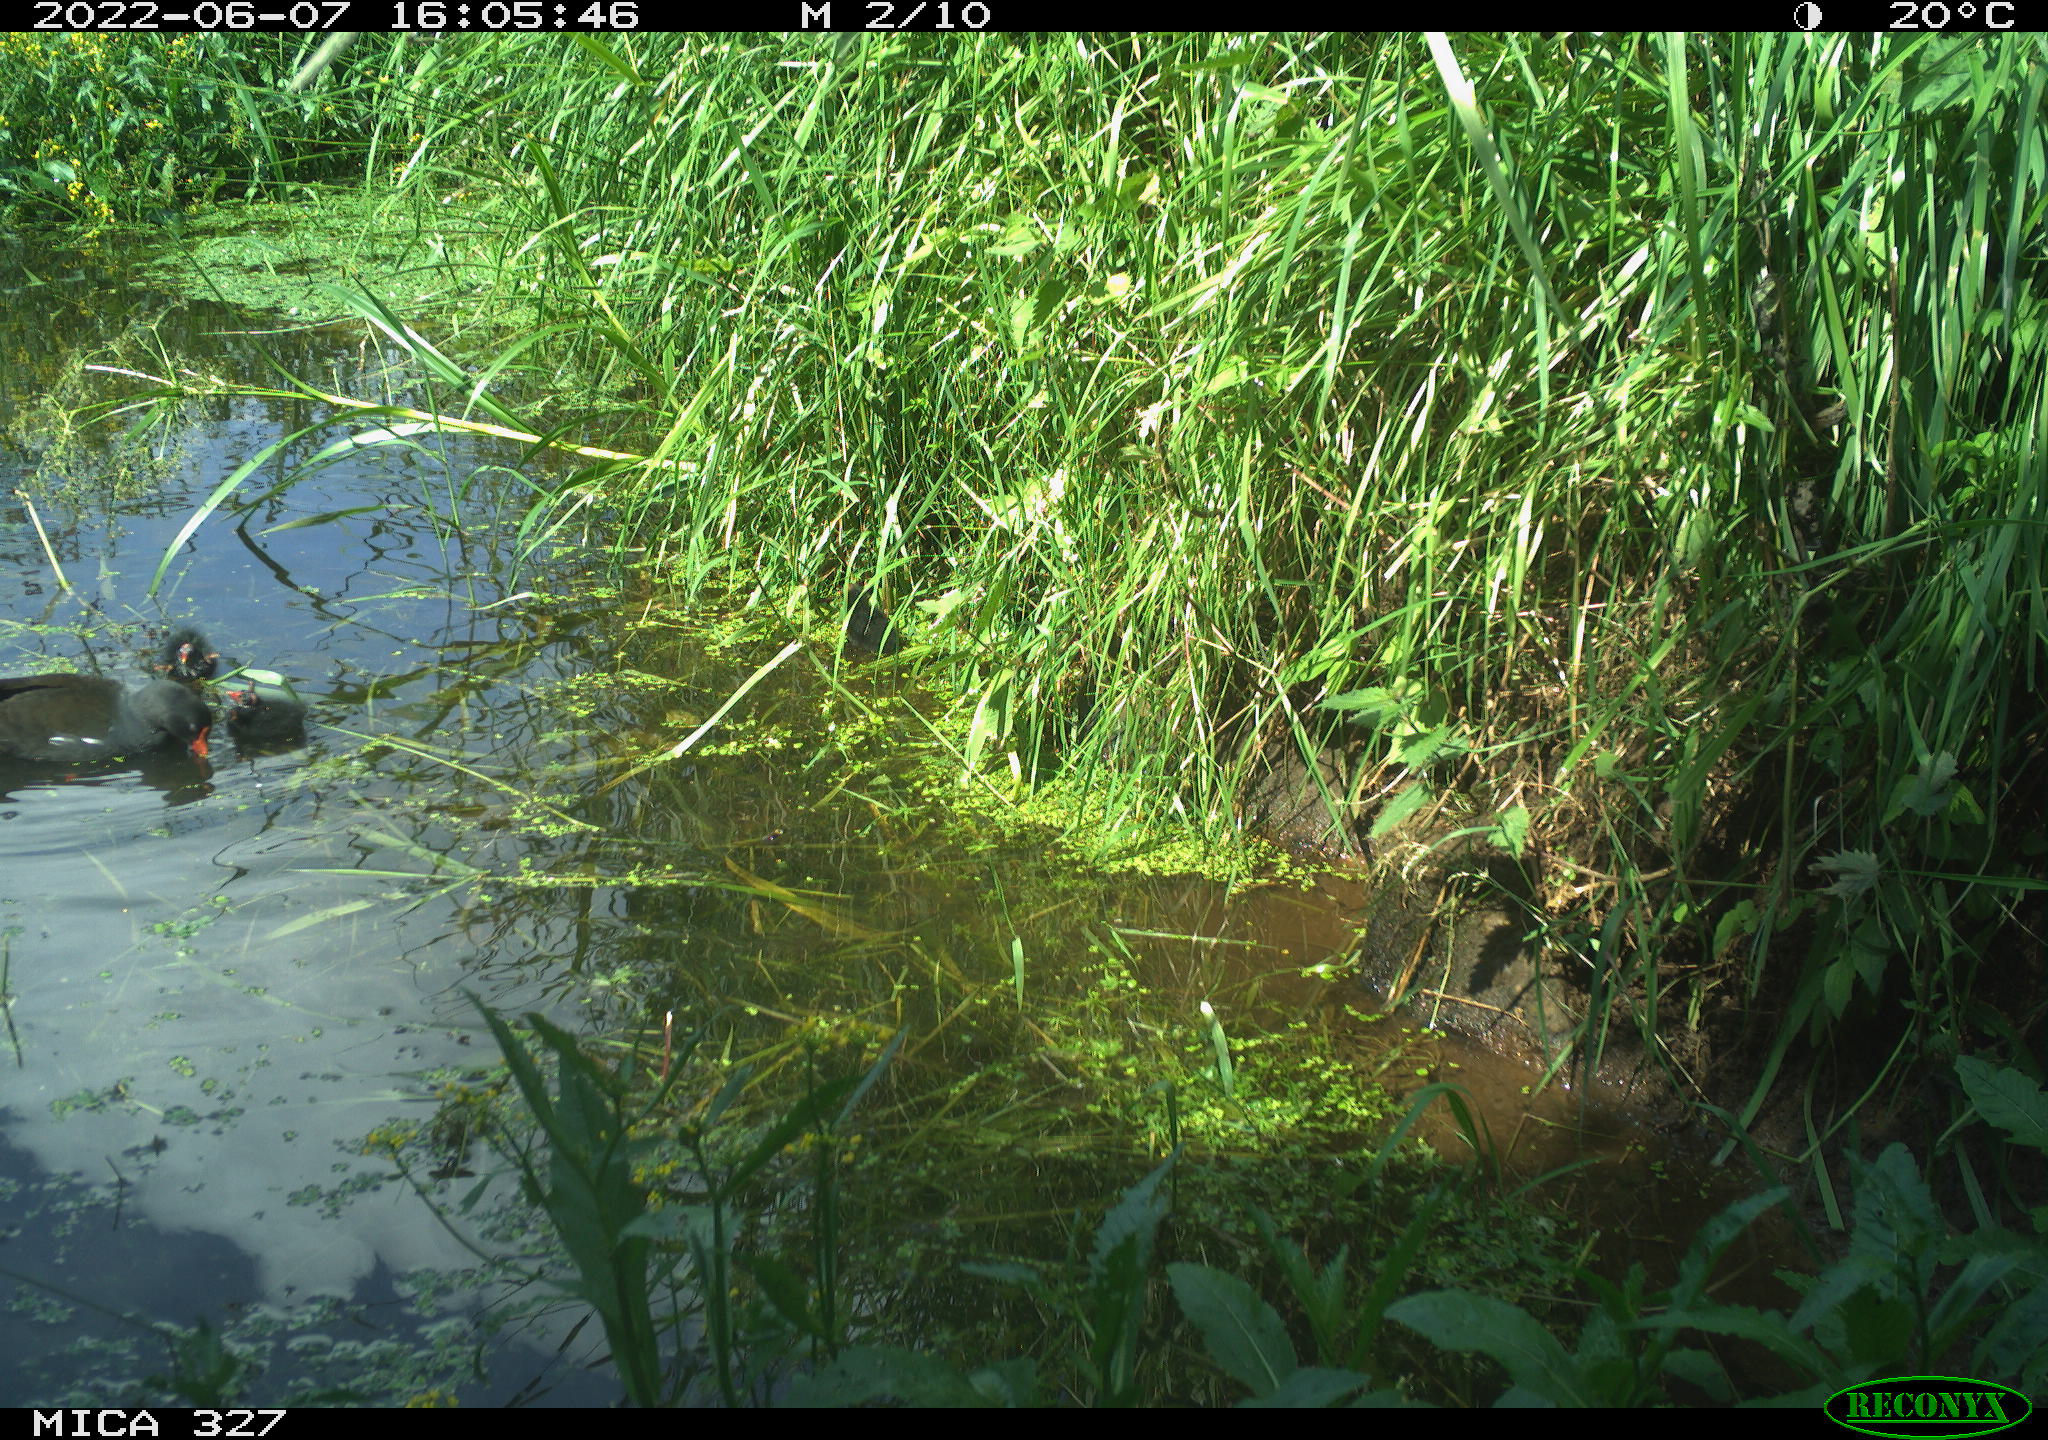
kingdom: Animalia
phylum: Chordata
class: Aves
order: Gruiformes
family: Rallidae
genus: Gallinula
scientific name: Gallinula chloropus
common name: Common moorhen
